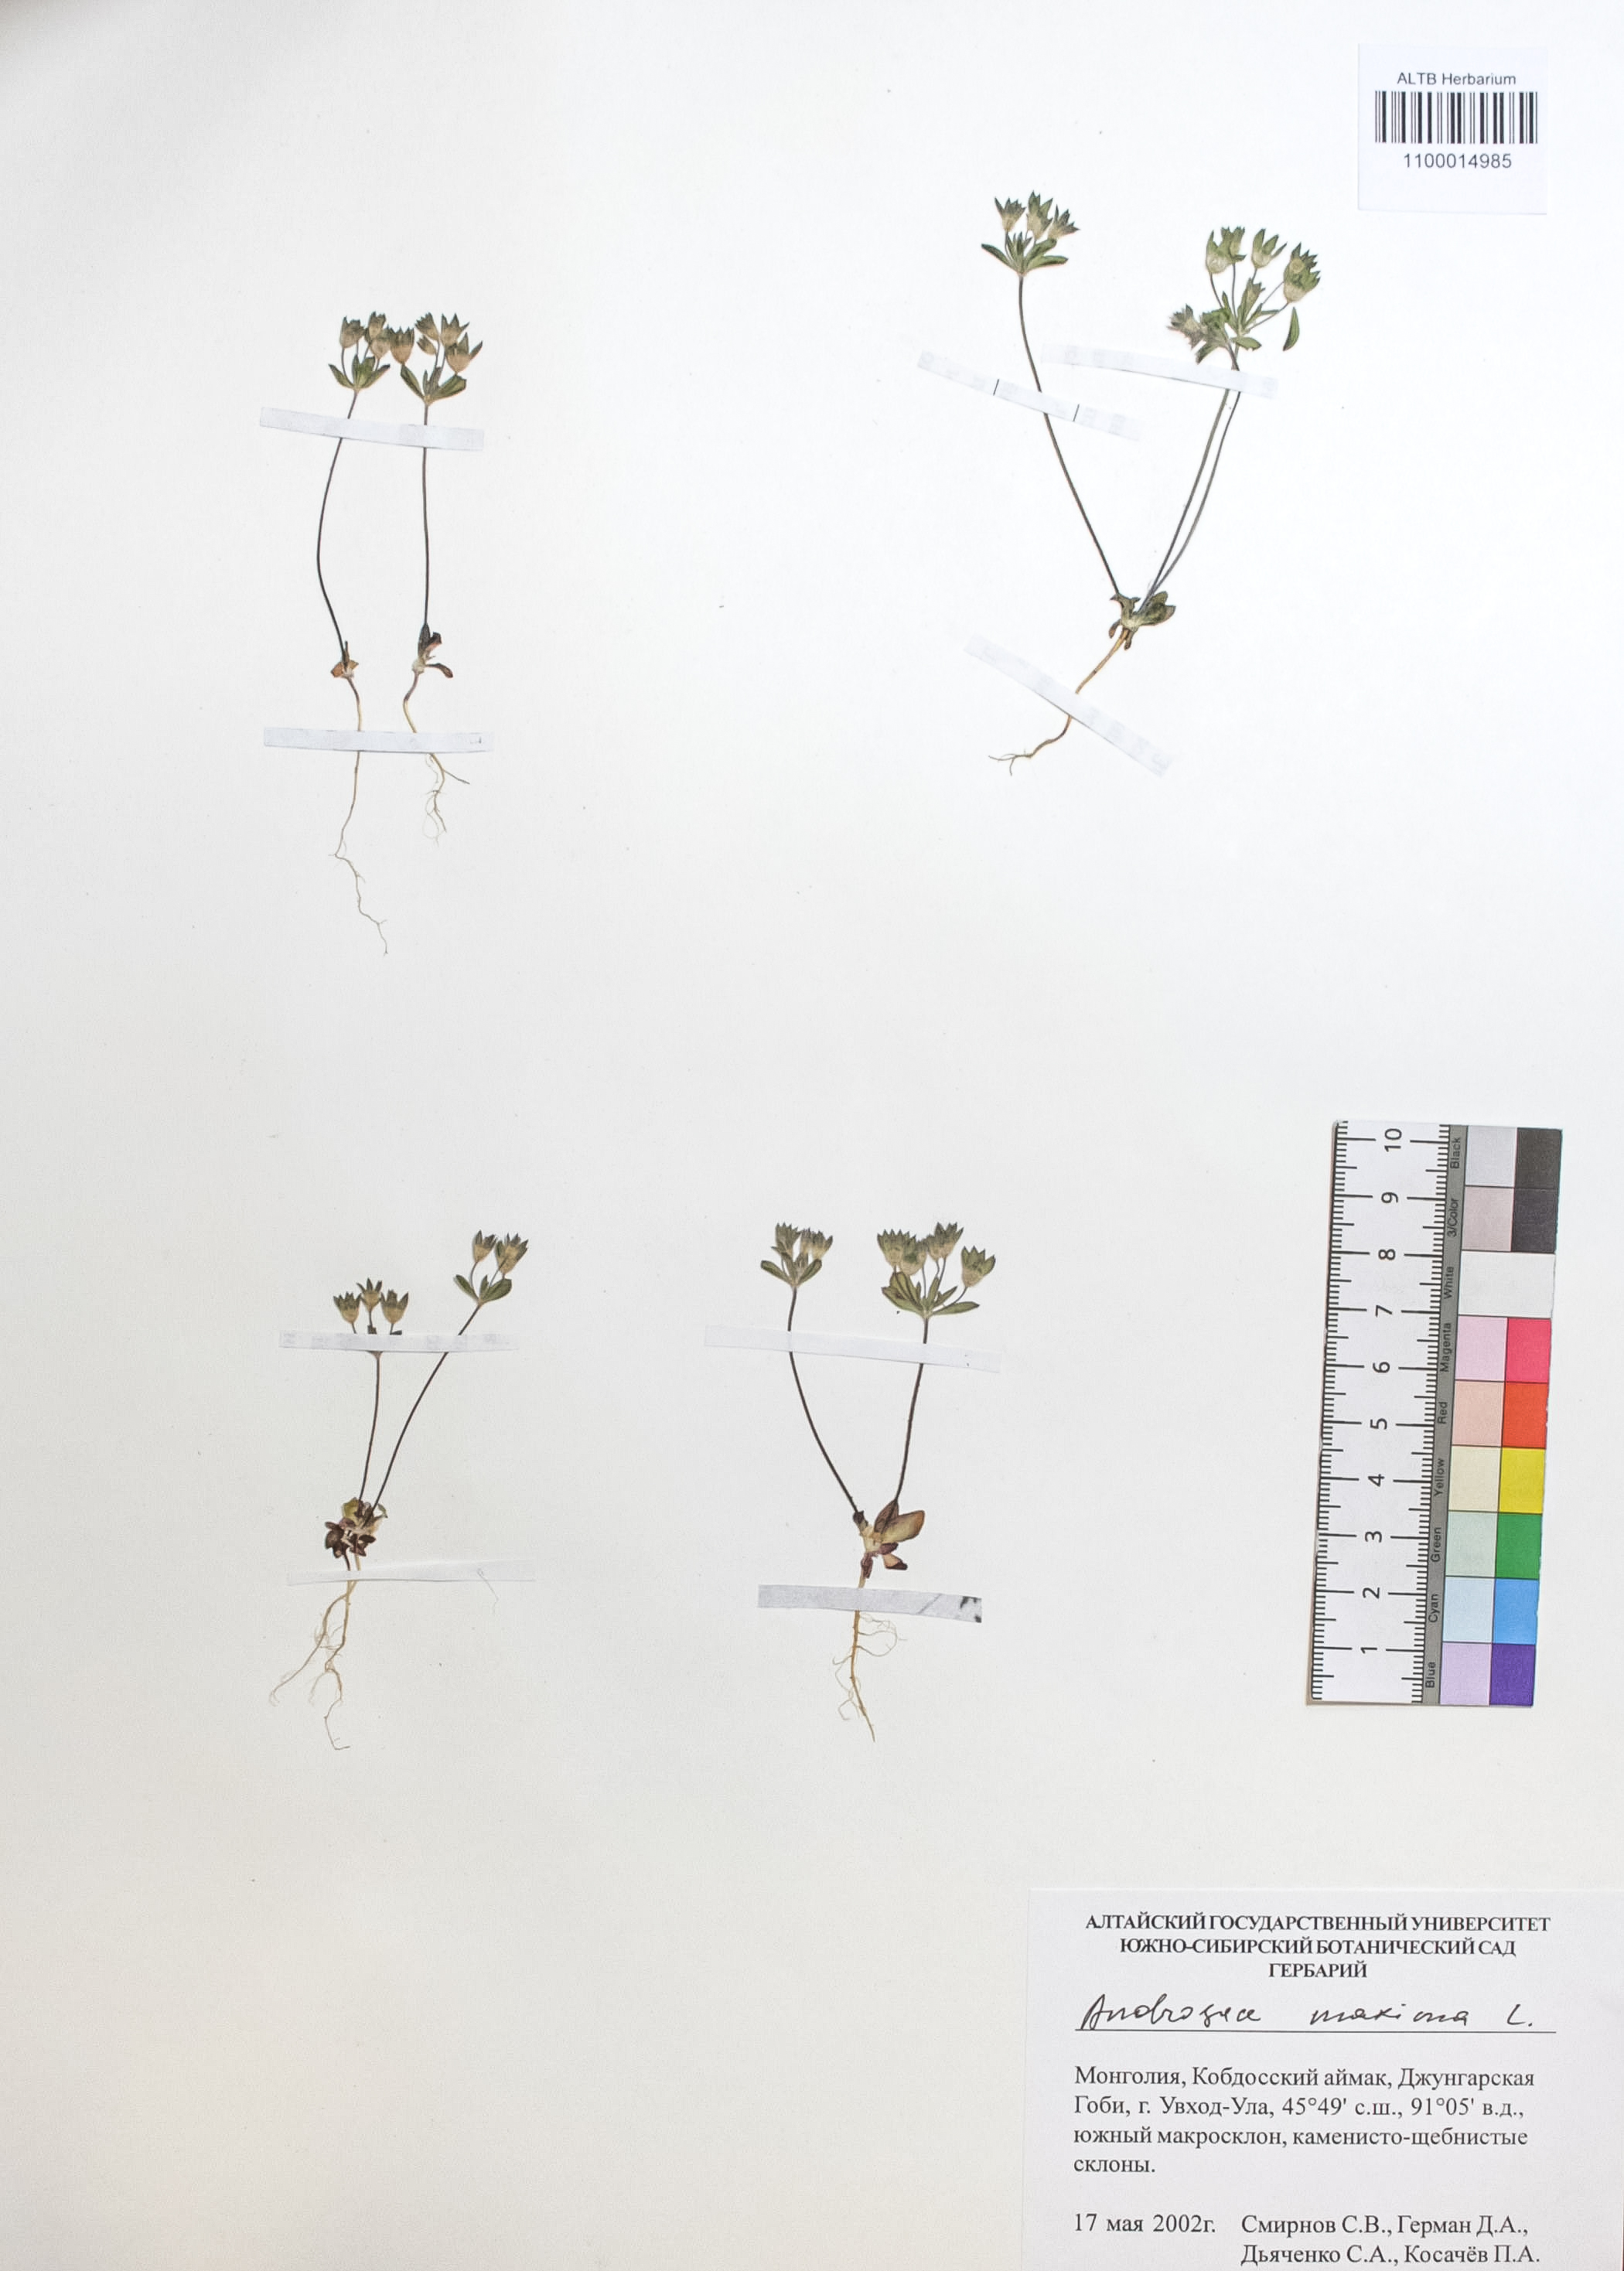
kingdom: Plantae
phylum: Tracheophyta
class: Magnoliopsida
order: Ericales
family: Primulaceae
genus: Androsace
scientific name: Androsace maxima
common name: Annual androsace
